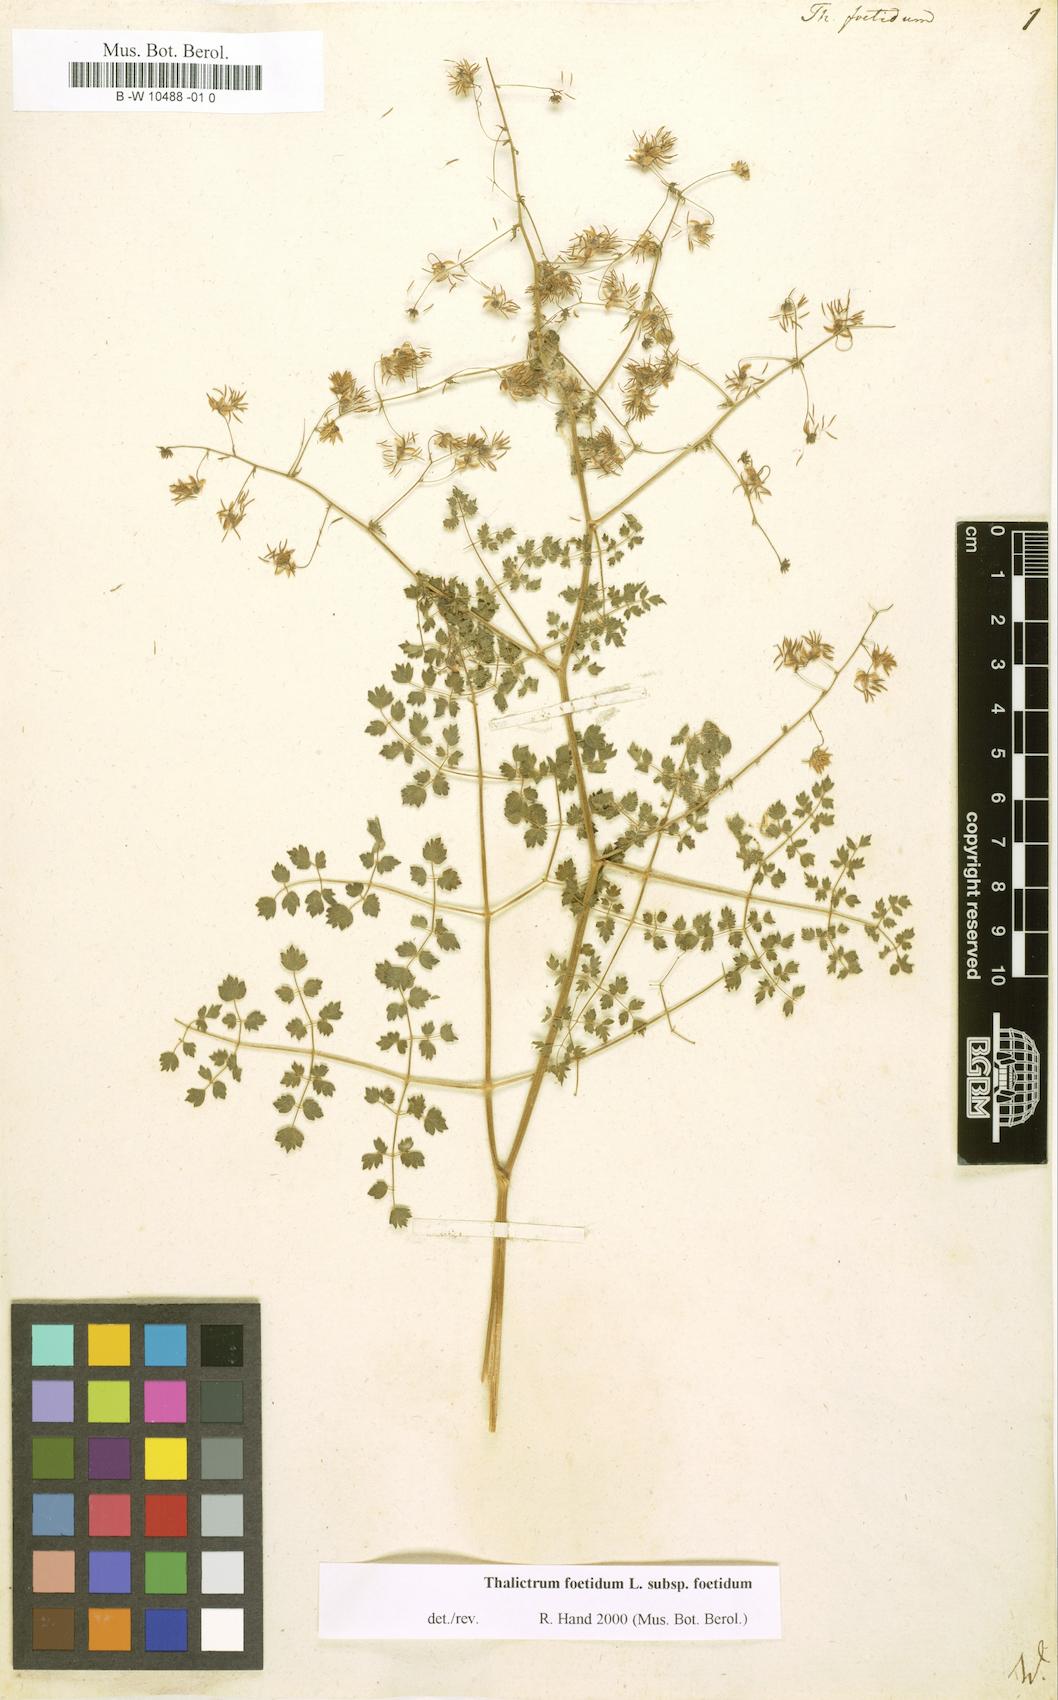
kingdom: Plantae
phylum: Tracheophyta
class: Magnoliopsida
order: Ranunculales
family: Ranunculaceae
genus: Thalictrum
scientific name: Thalictrum foetidum
